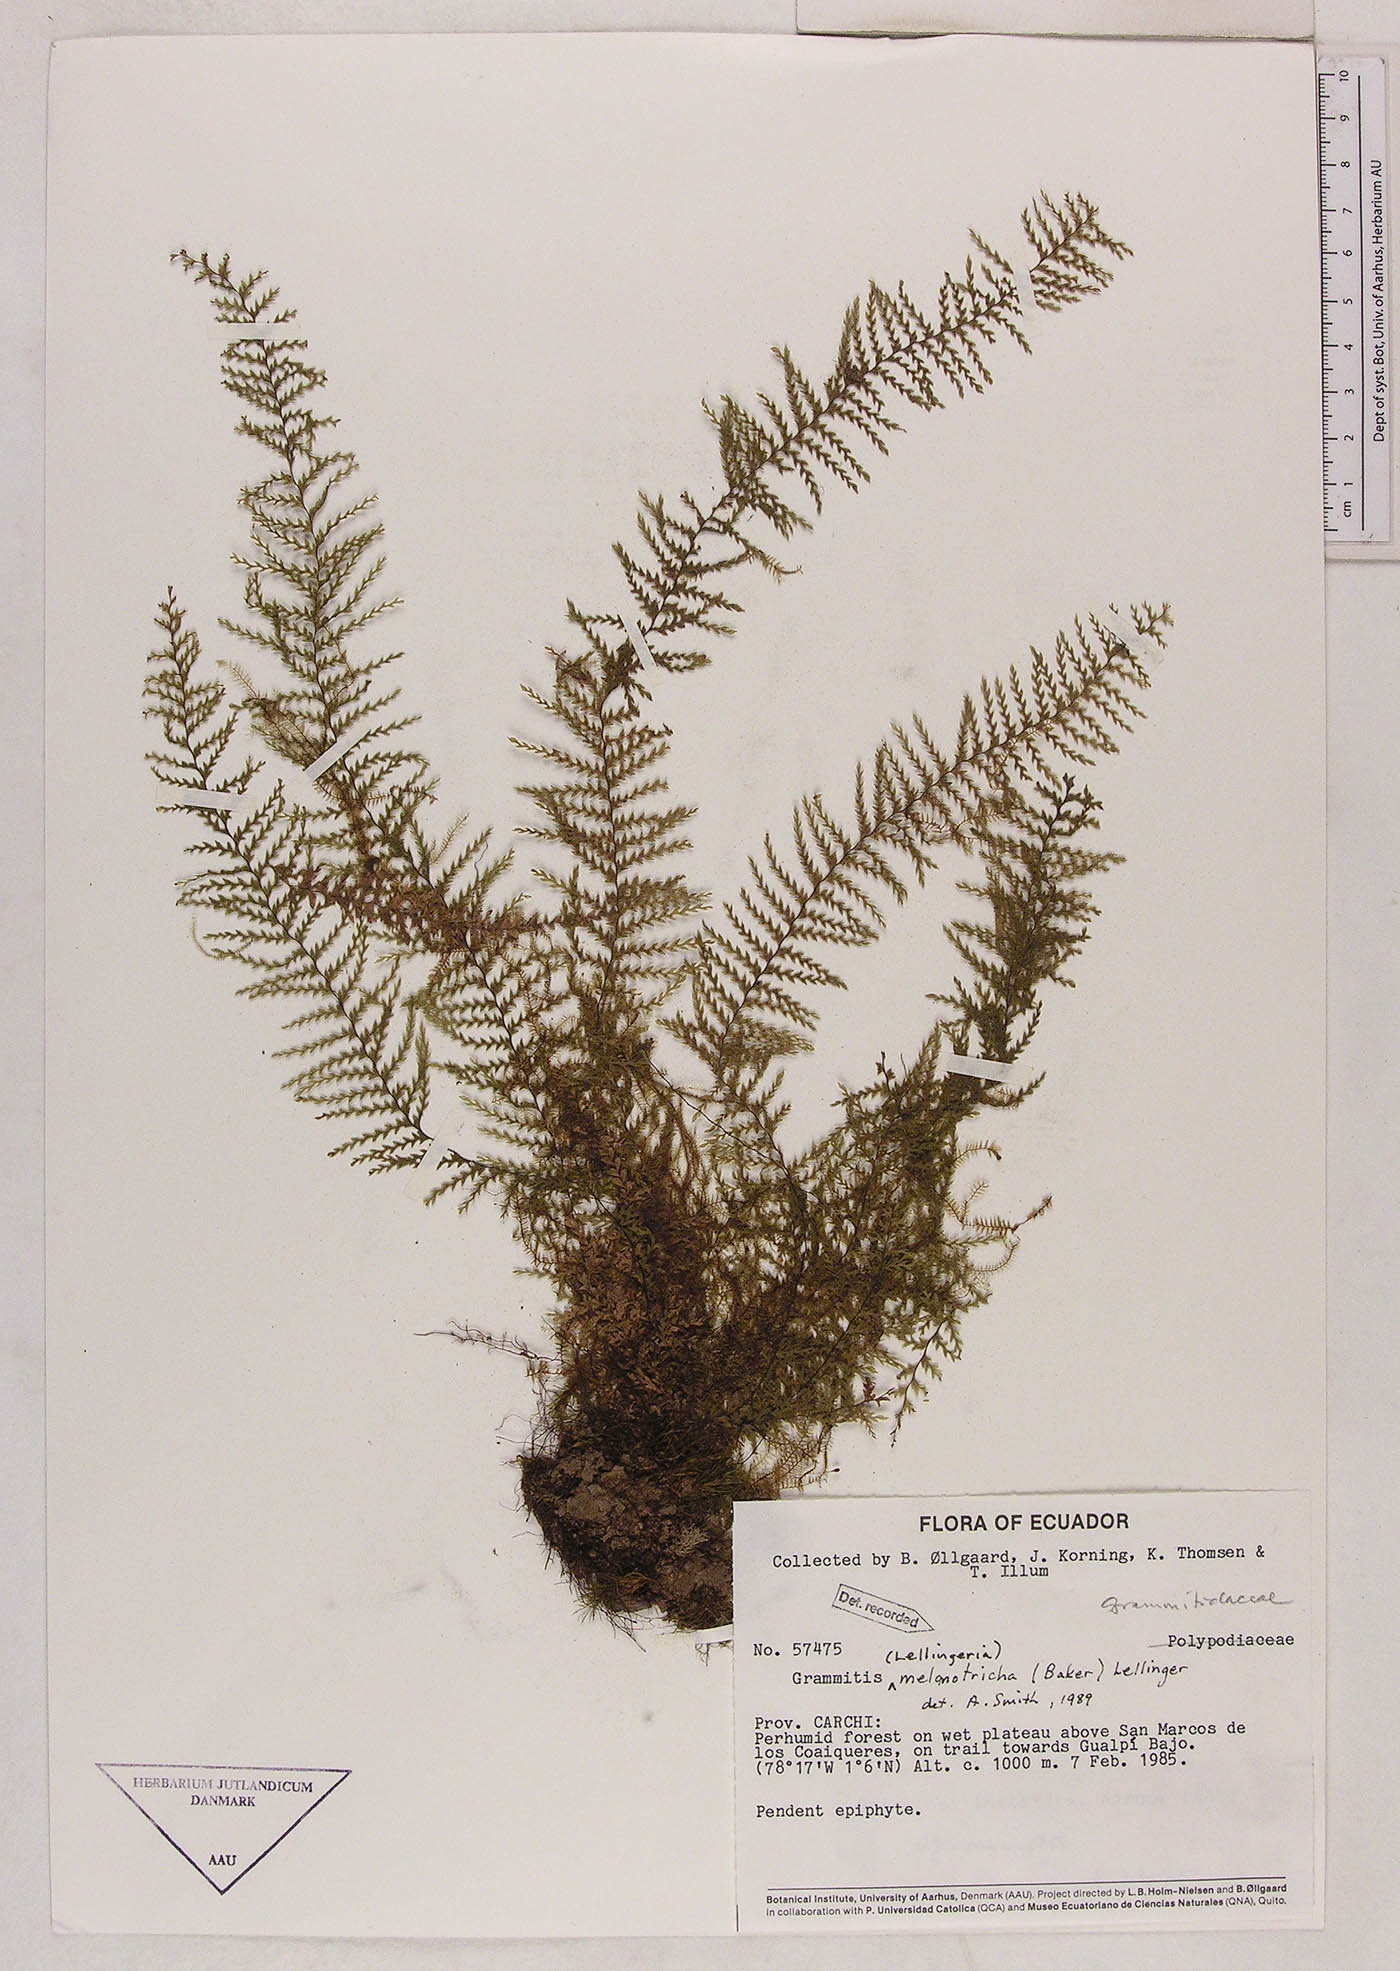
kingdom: Plantae
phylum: Tracheophyta
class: Polypodiopsida
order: Polypodiales
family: Polypodiaceae
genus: Lellingeria
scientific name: Lellingeria melanotrichia
